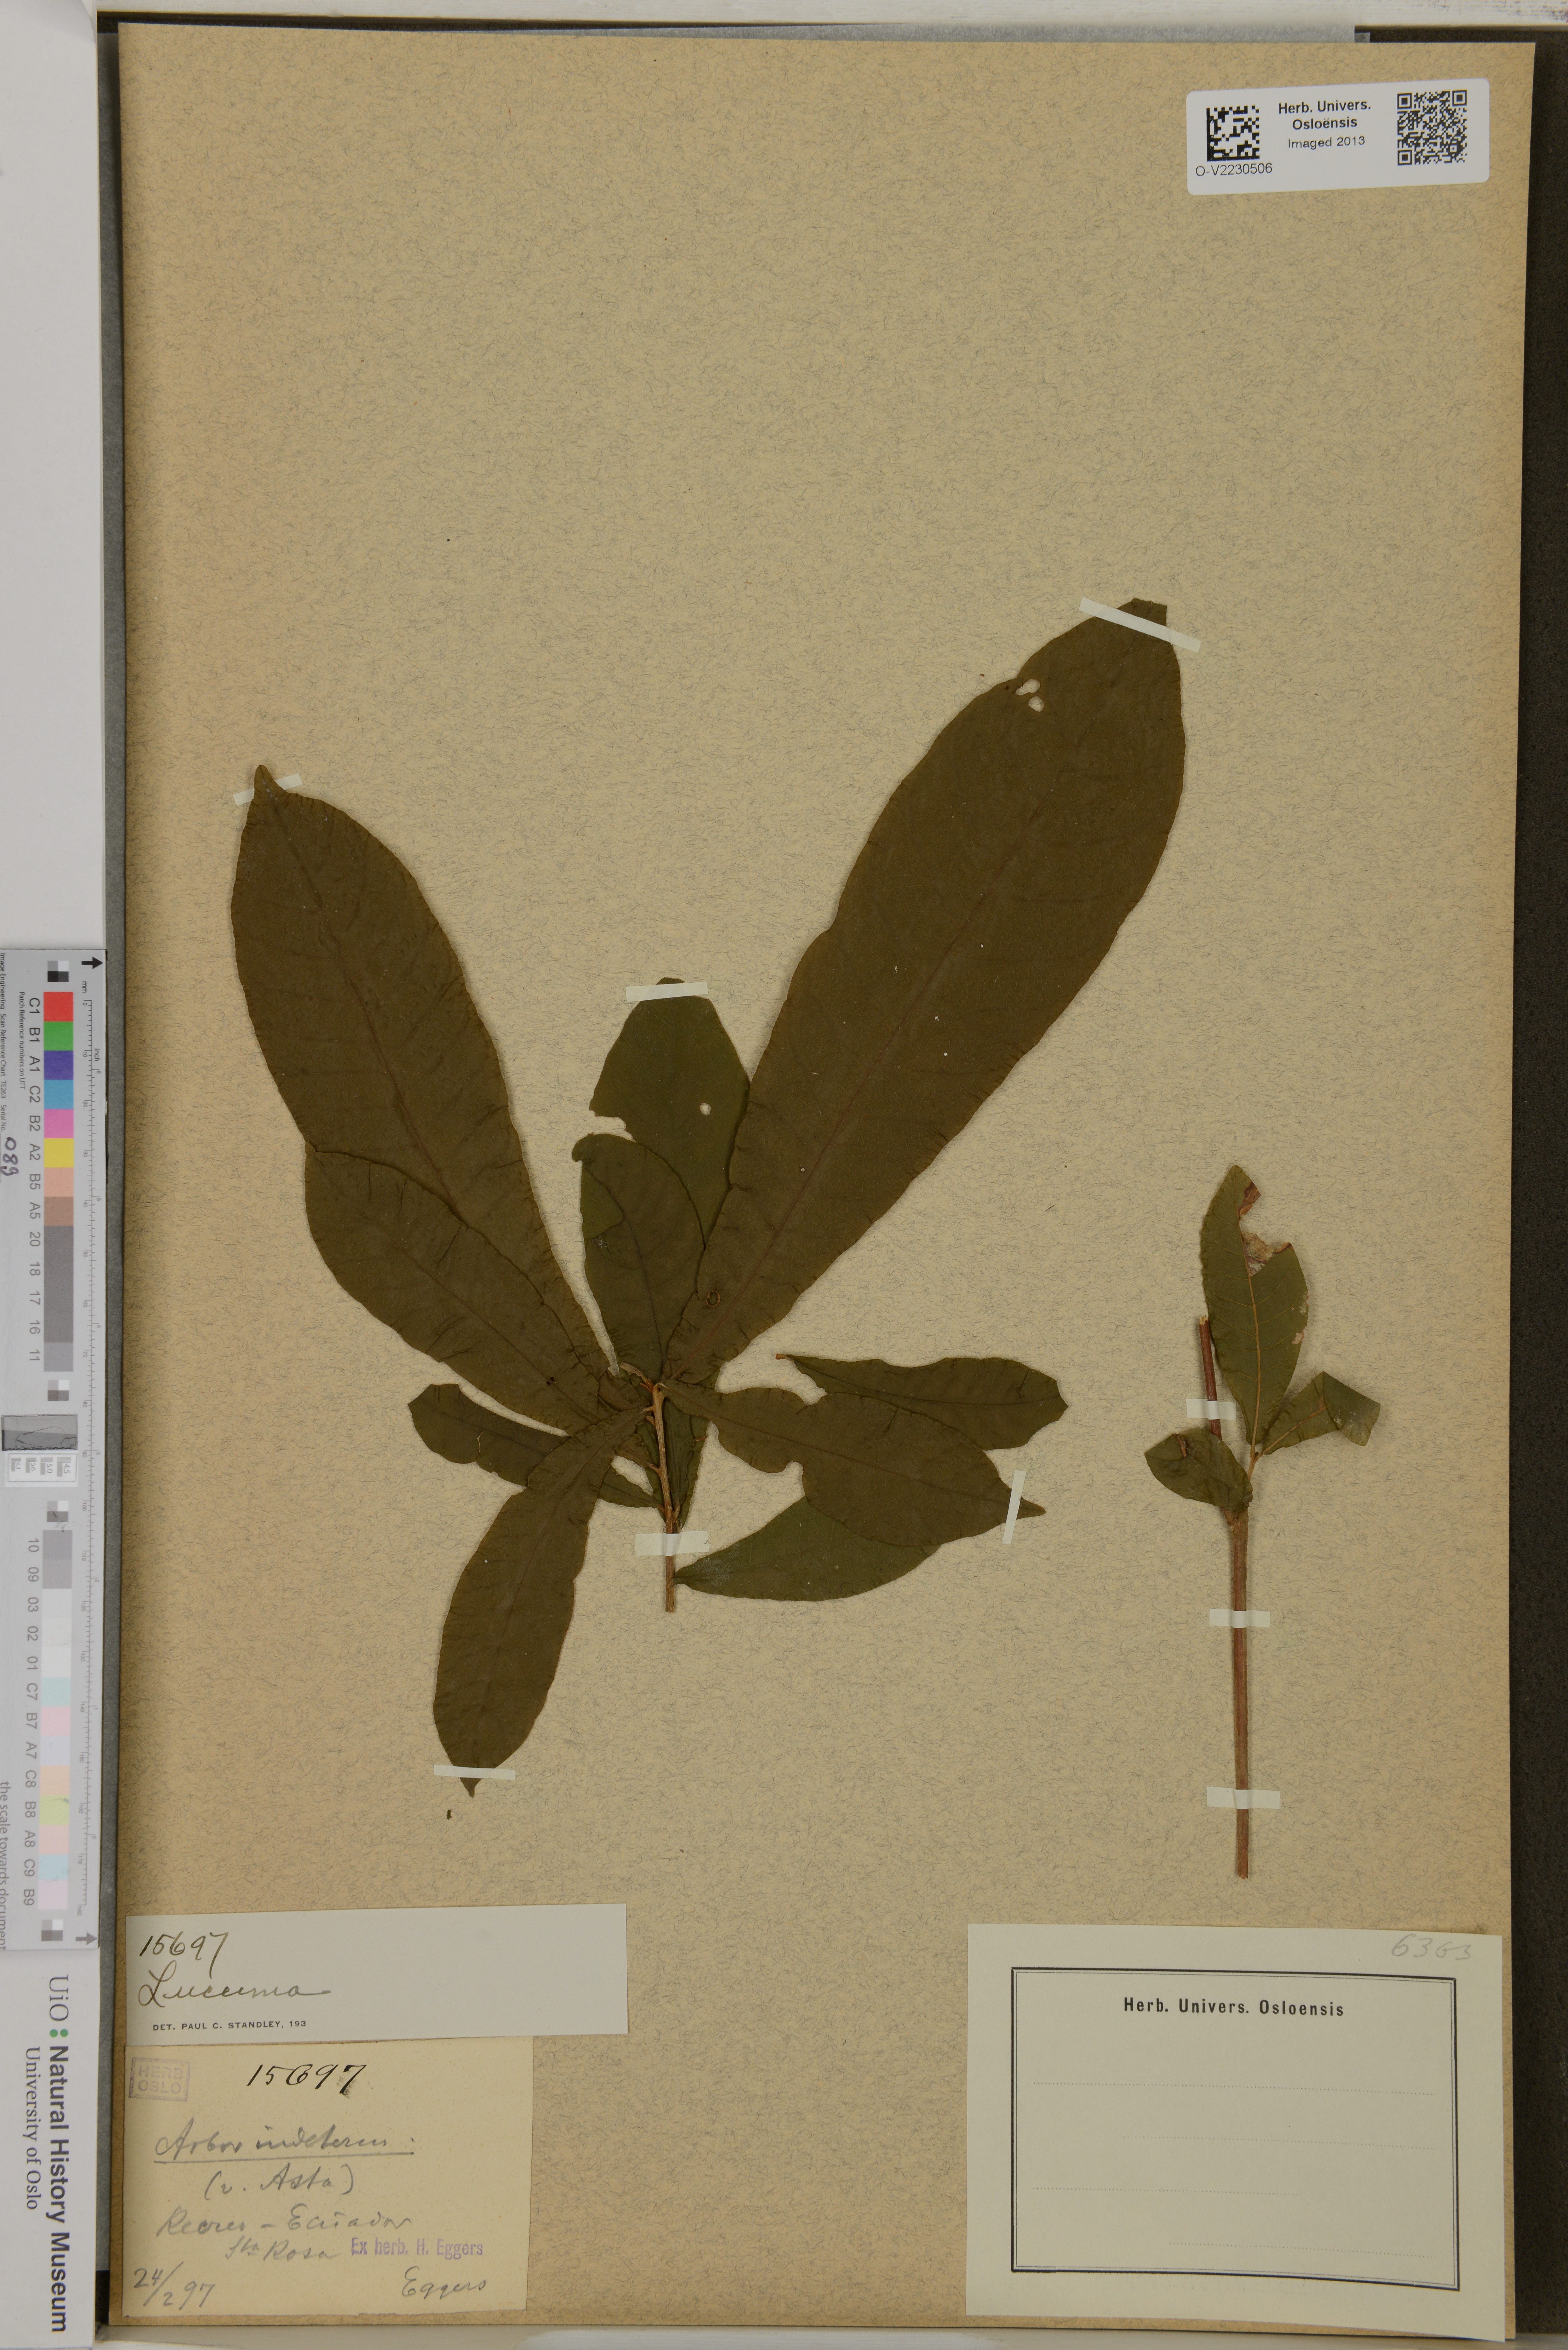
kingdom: Plantae
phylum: Tracheophyta
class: Magnoliopsida
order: Ericales
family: Sapotaceae
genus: Pouteria
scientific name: Pouteria
